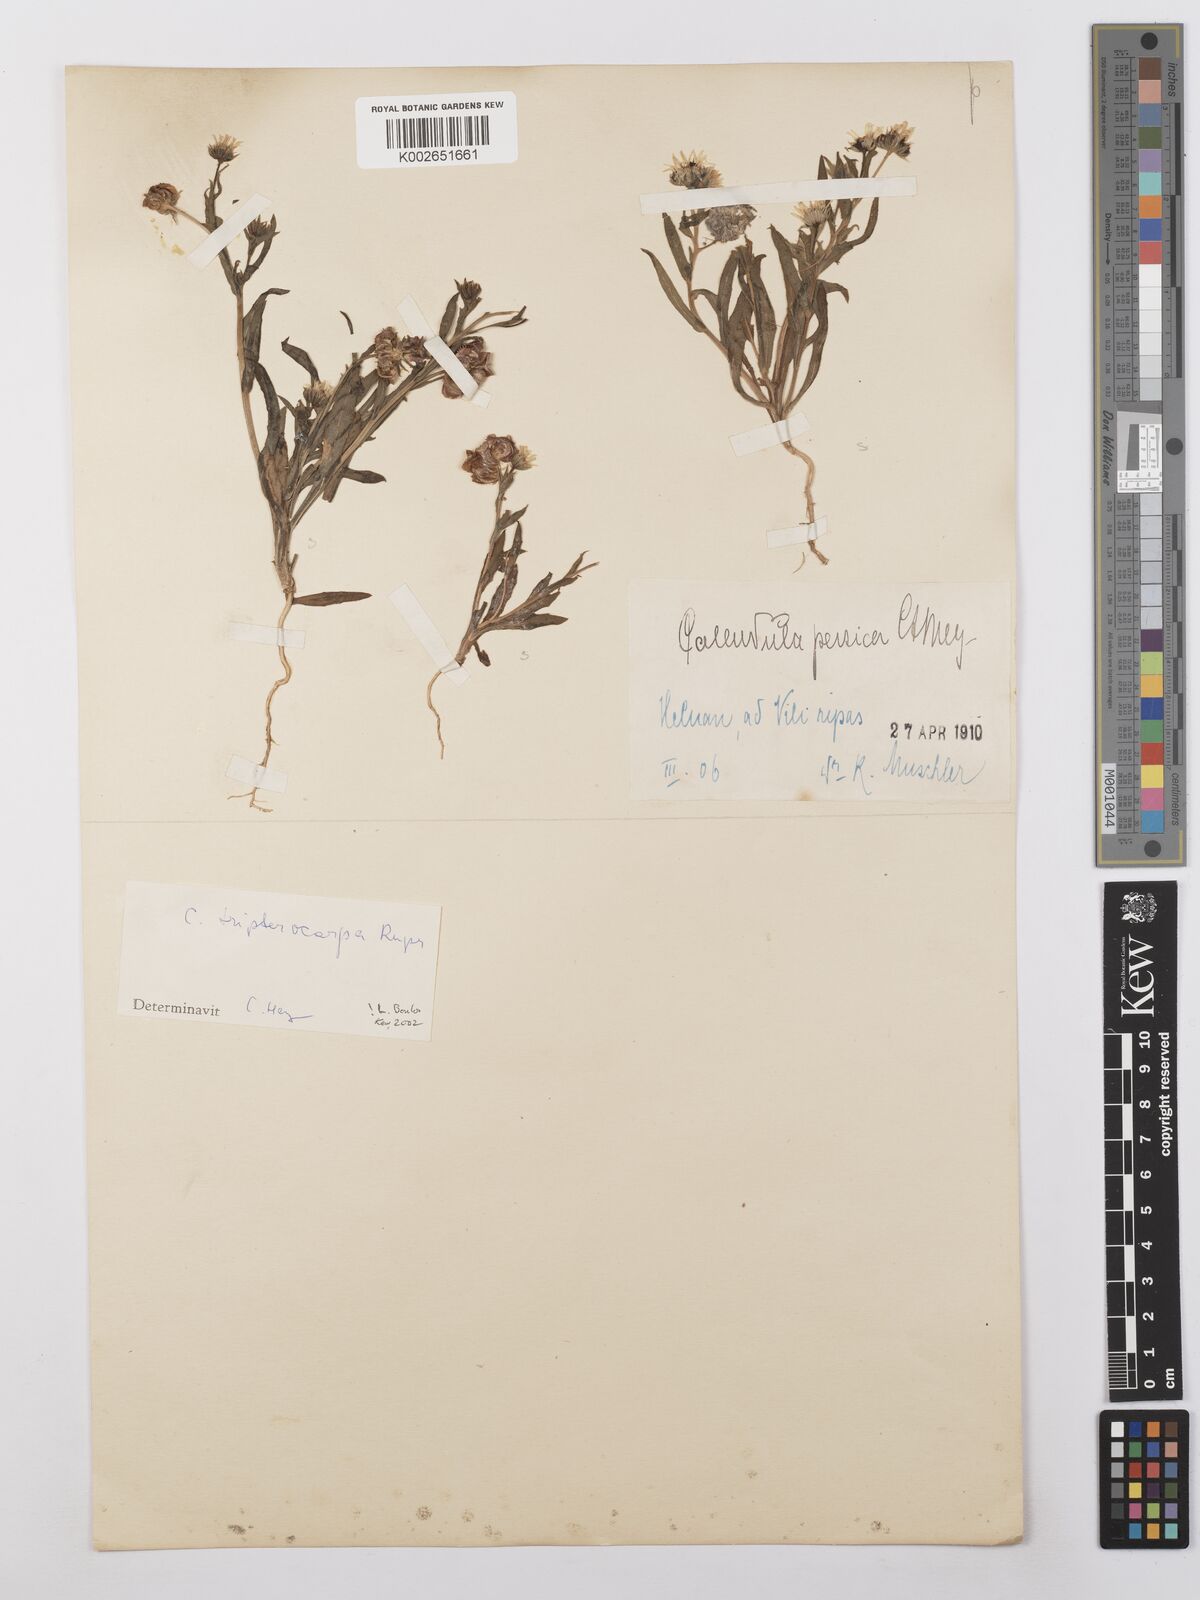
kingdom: Plantae
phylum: Tracheophyta
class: Magnoliopsida
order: Asterales
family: Asteraceae
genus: Calendula
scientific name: Calendula tripterocarpa
